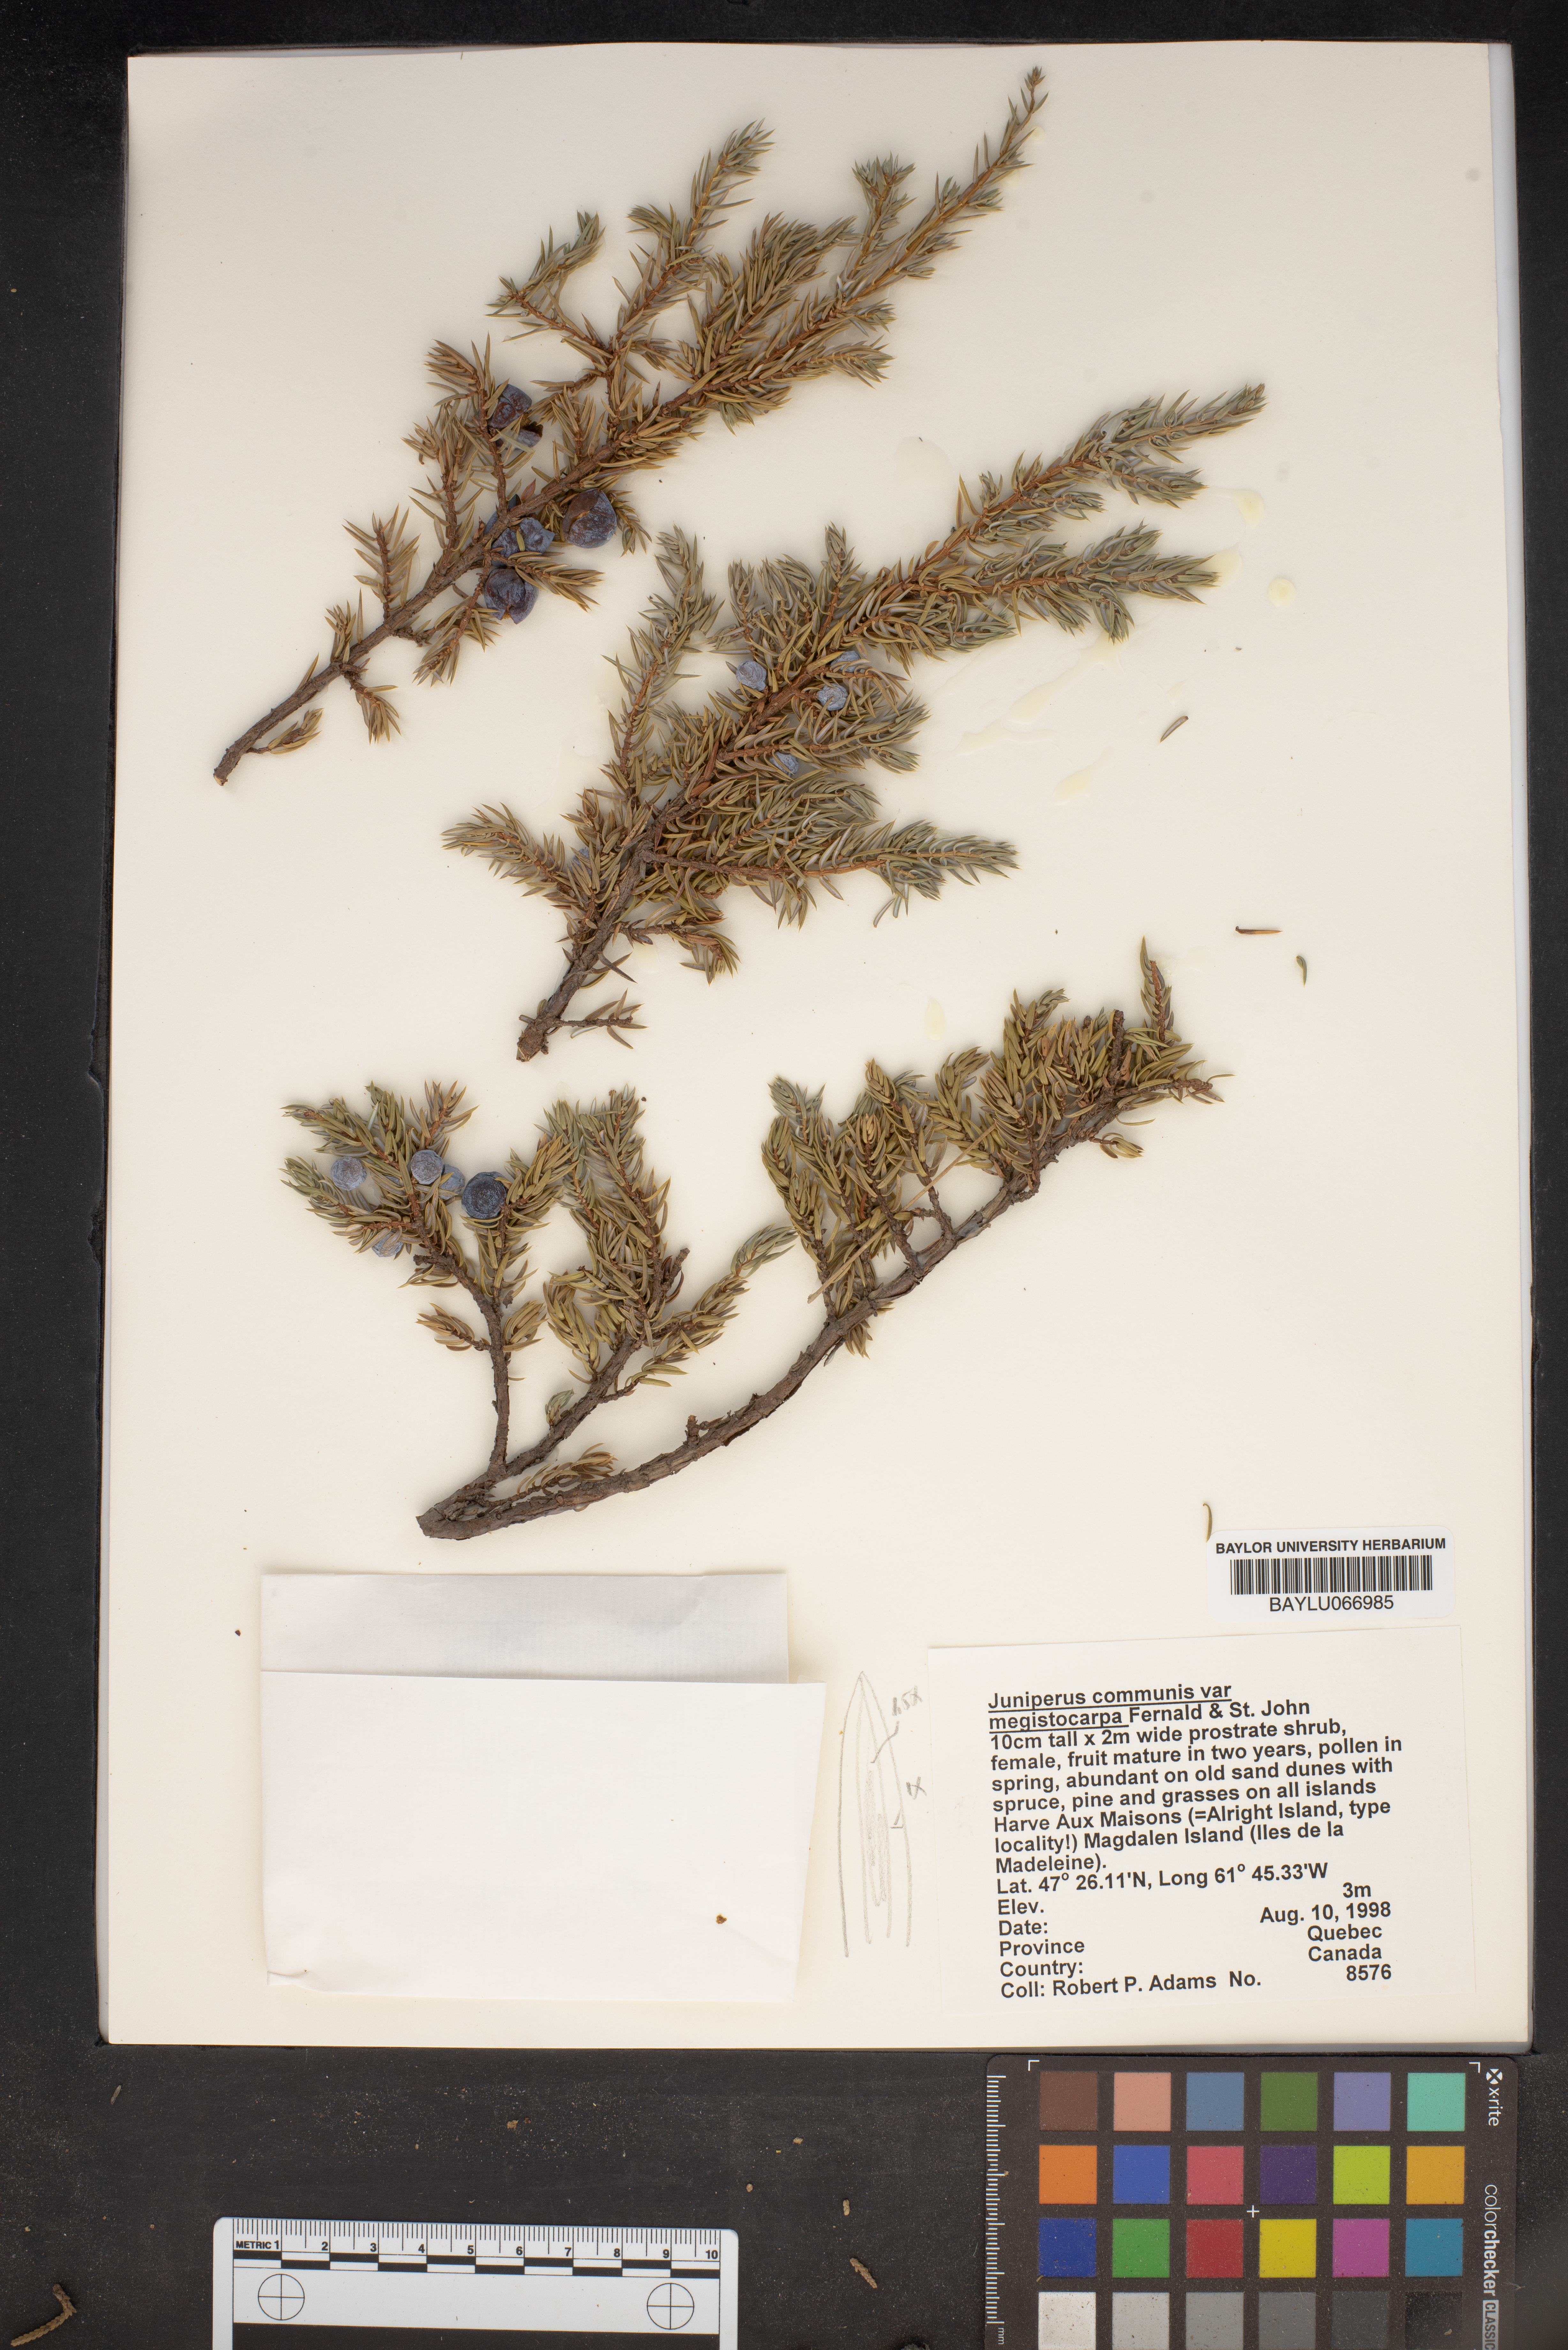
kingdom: Plantae
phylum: Tracheophyta
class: Pinopsida
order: Pinales
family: Cupressaceae
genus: Juniperus
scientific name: Juniperus communis
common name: Common juniper
